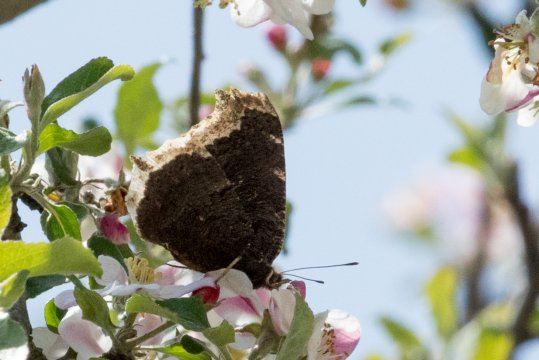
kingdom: Animalia
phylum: Arthropoda
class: Insecta
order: Lepidoptera
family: Nymphalidae
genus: Nymphalis
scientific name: Nymphalis antiopa
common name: Mourning Cloak
